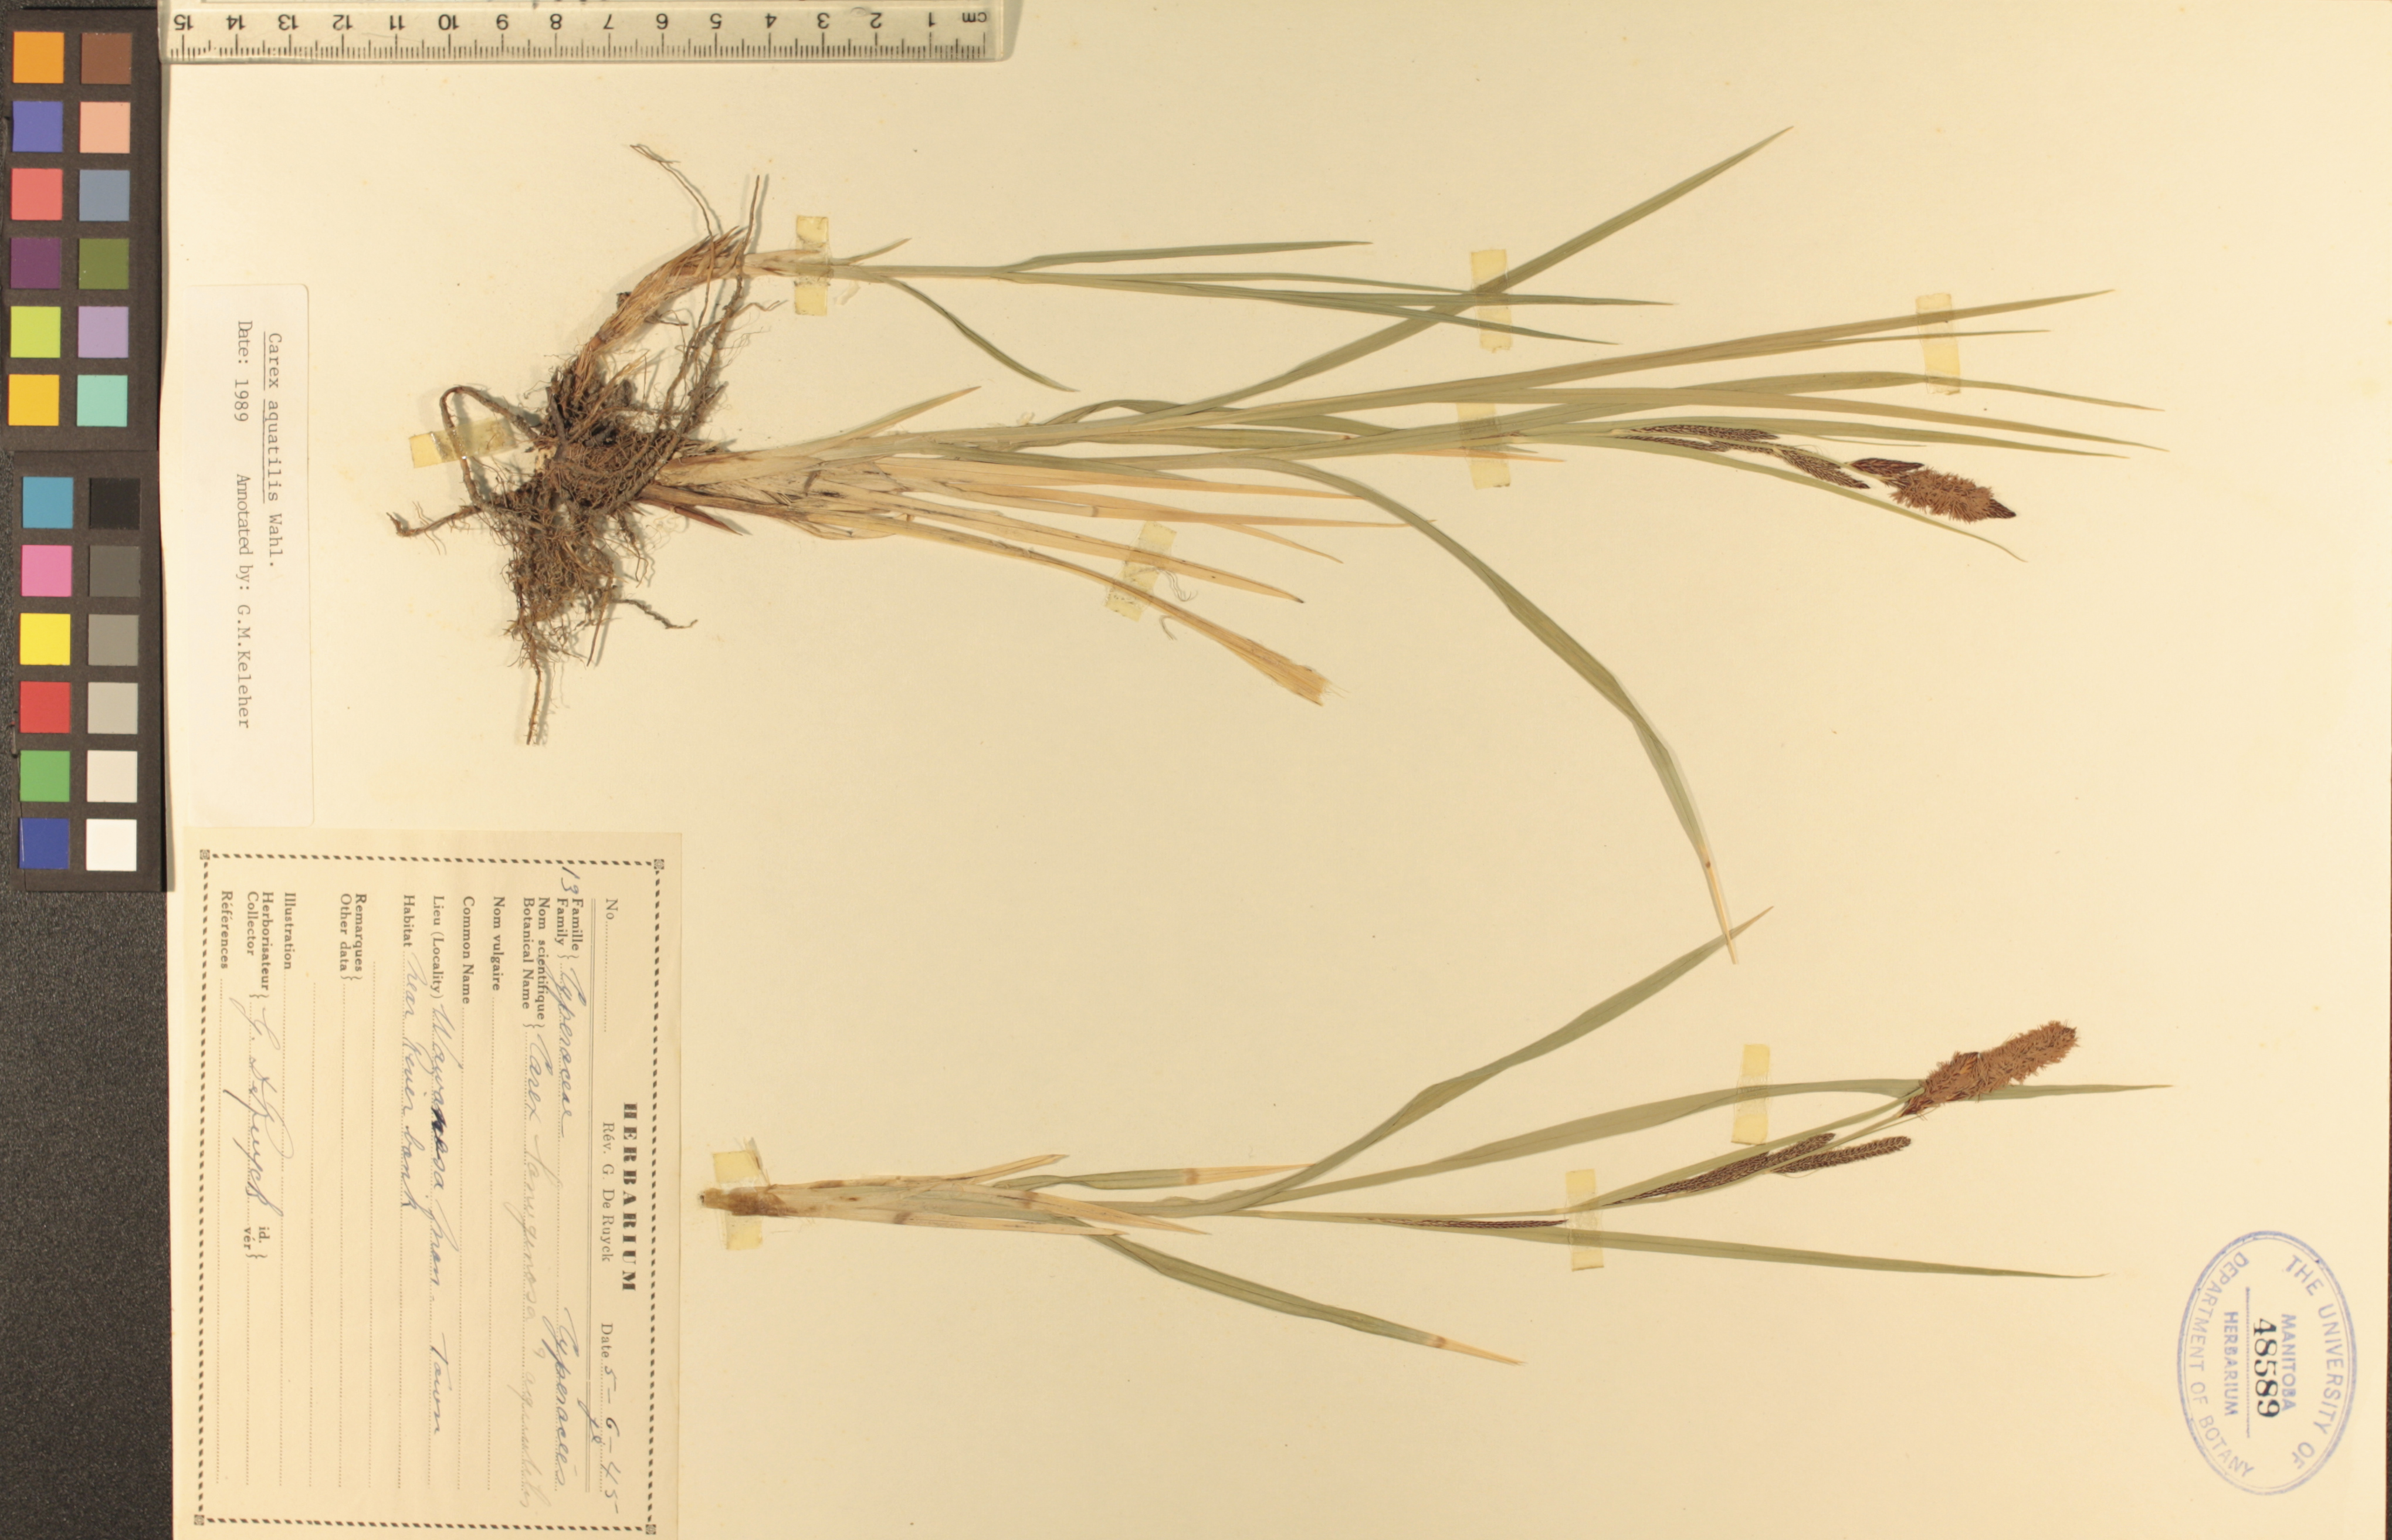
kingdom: Plantae
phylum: Tracheophyta
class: Liliopsida
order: Poales
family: Cyperaceae
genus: Carex
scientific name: Carex aquatilis
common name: Water sedge
